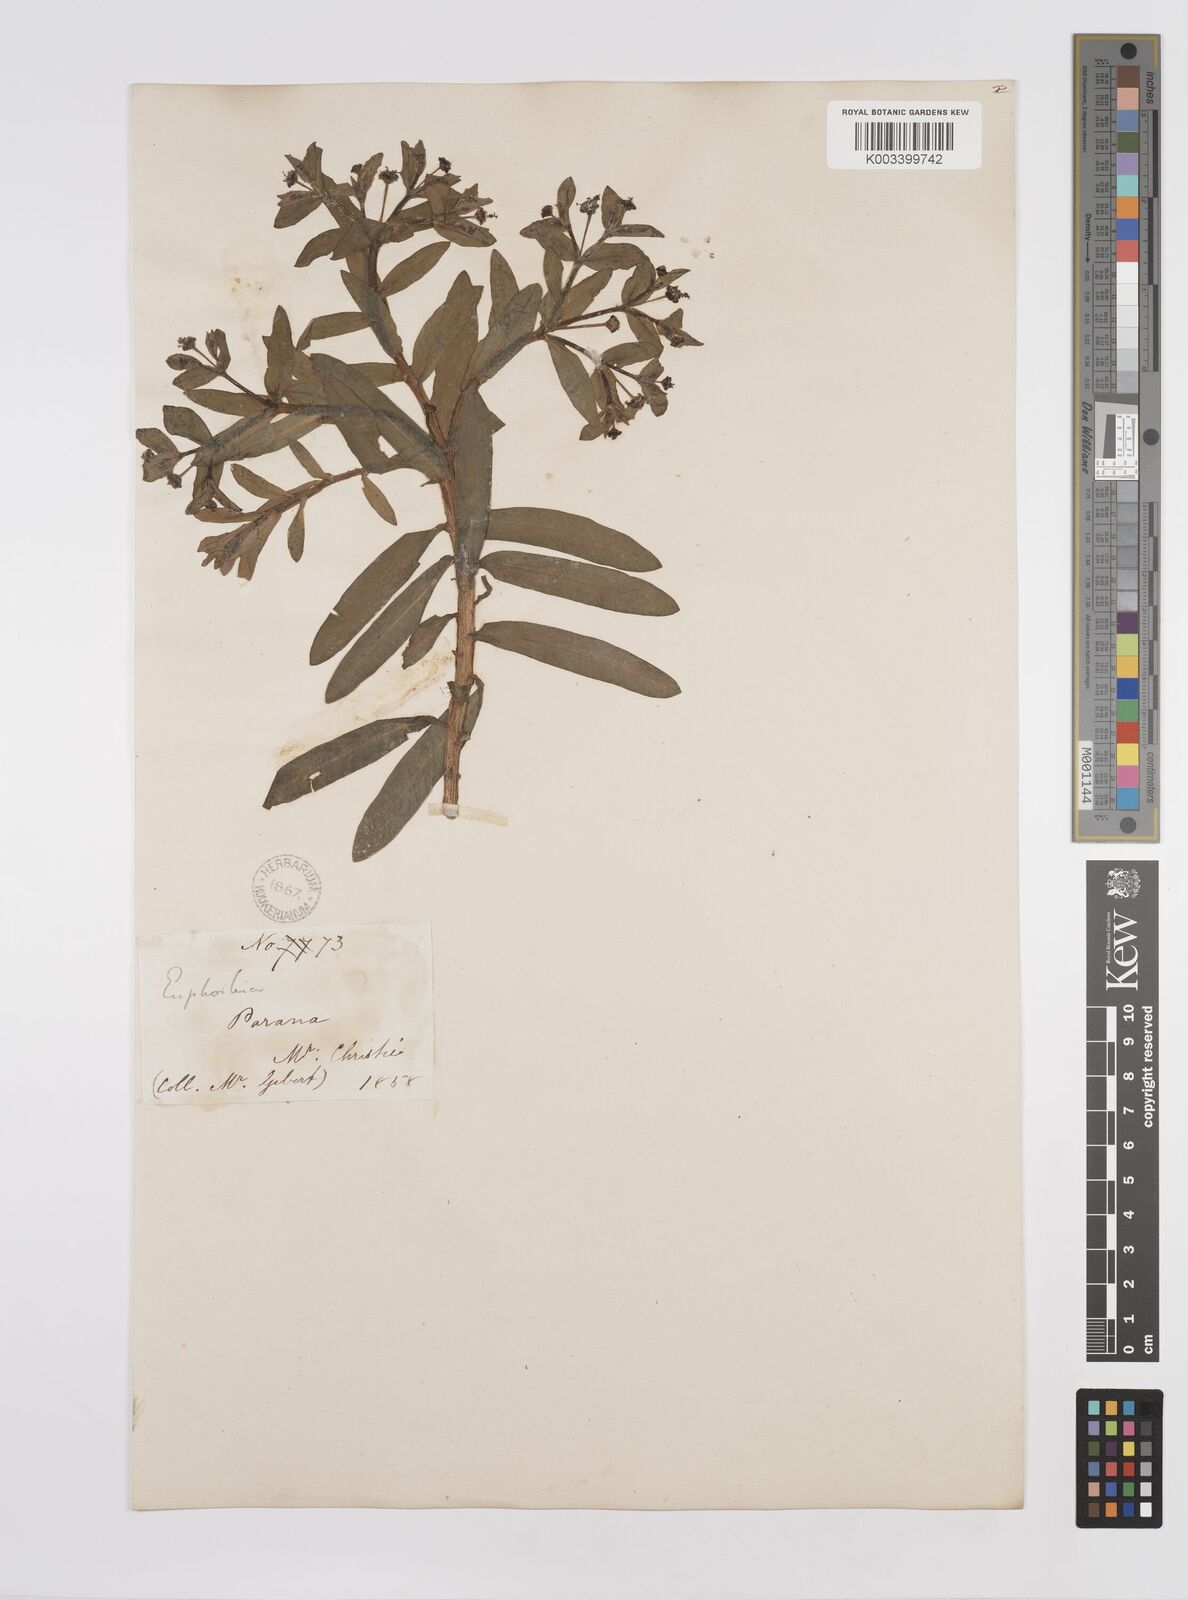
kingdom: Plantae
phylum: Tracheophyta
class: Magnoliopsida
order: Malpighiales
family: Euphorbiaceae
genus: Euphorbia
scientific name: Euphorbia
